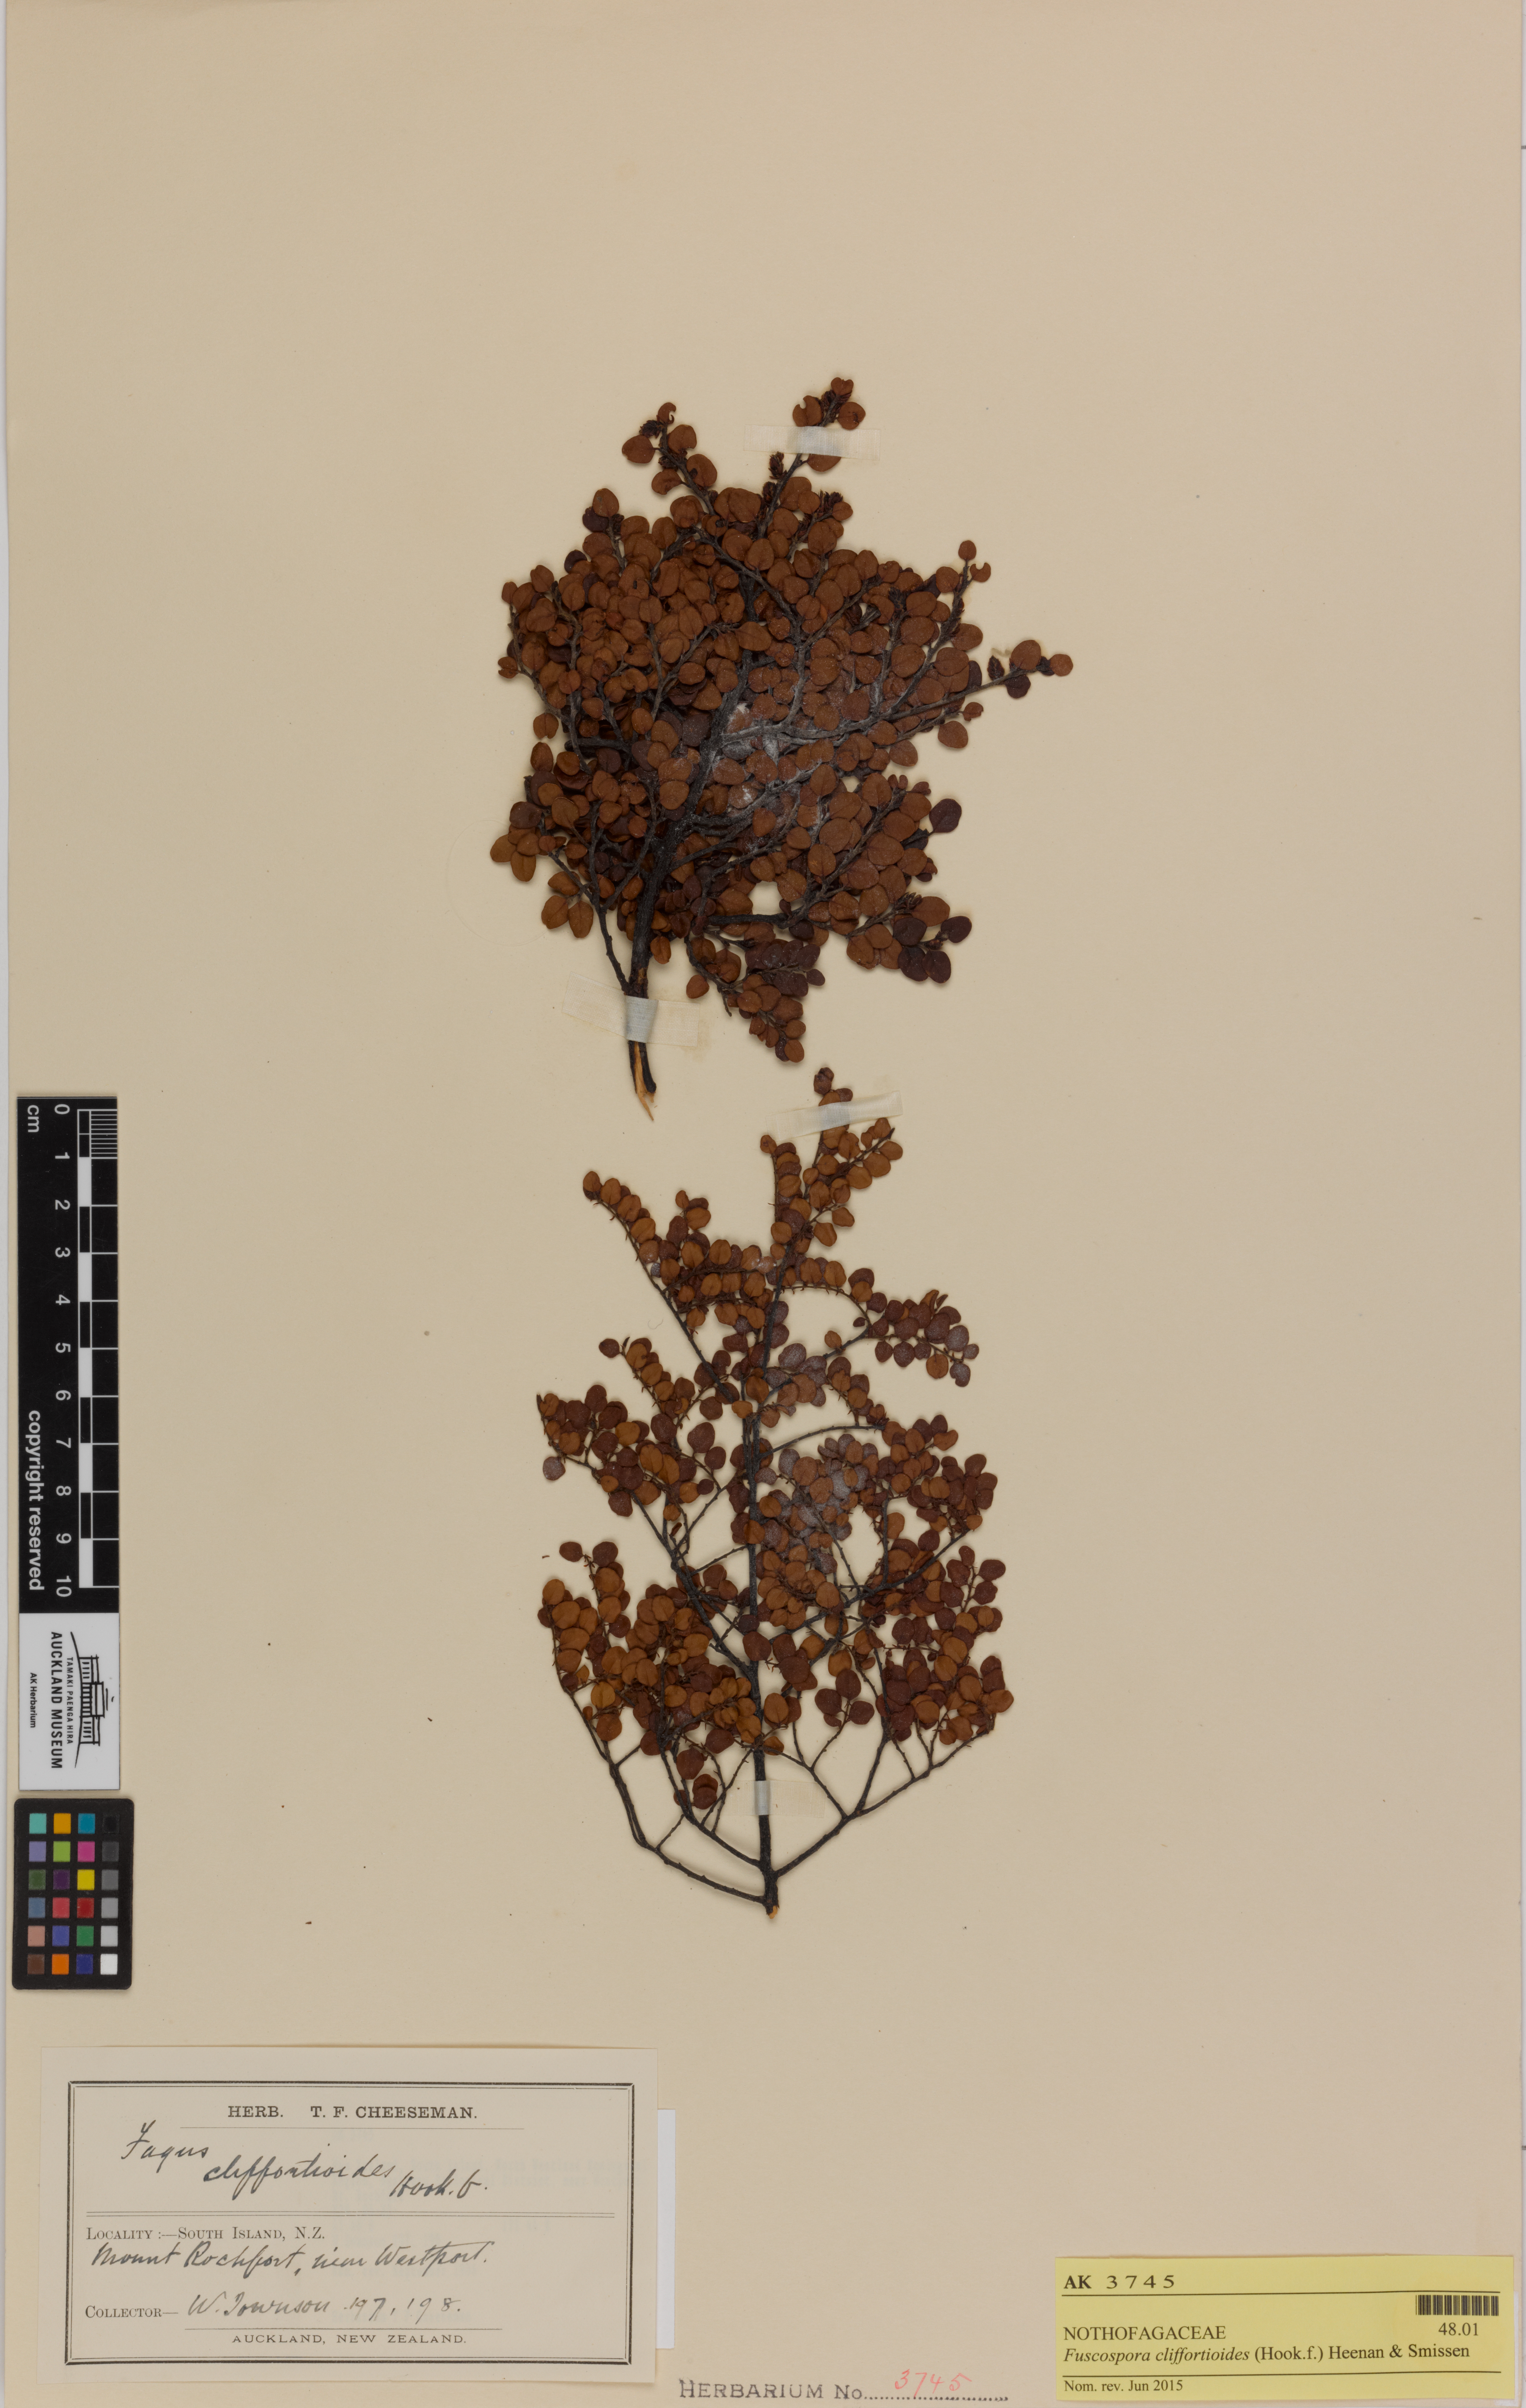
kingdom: Plantae
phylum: Tracheophyta
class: Magnoliopsida
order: Fagales
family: Nothofagaceae
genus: Nothofagus
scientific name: Nothofagus cliffortioides
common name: Mountain beech
